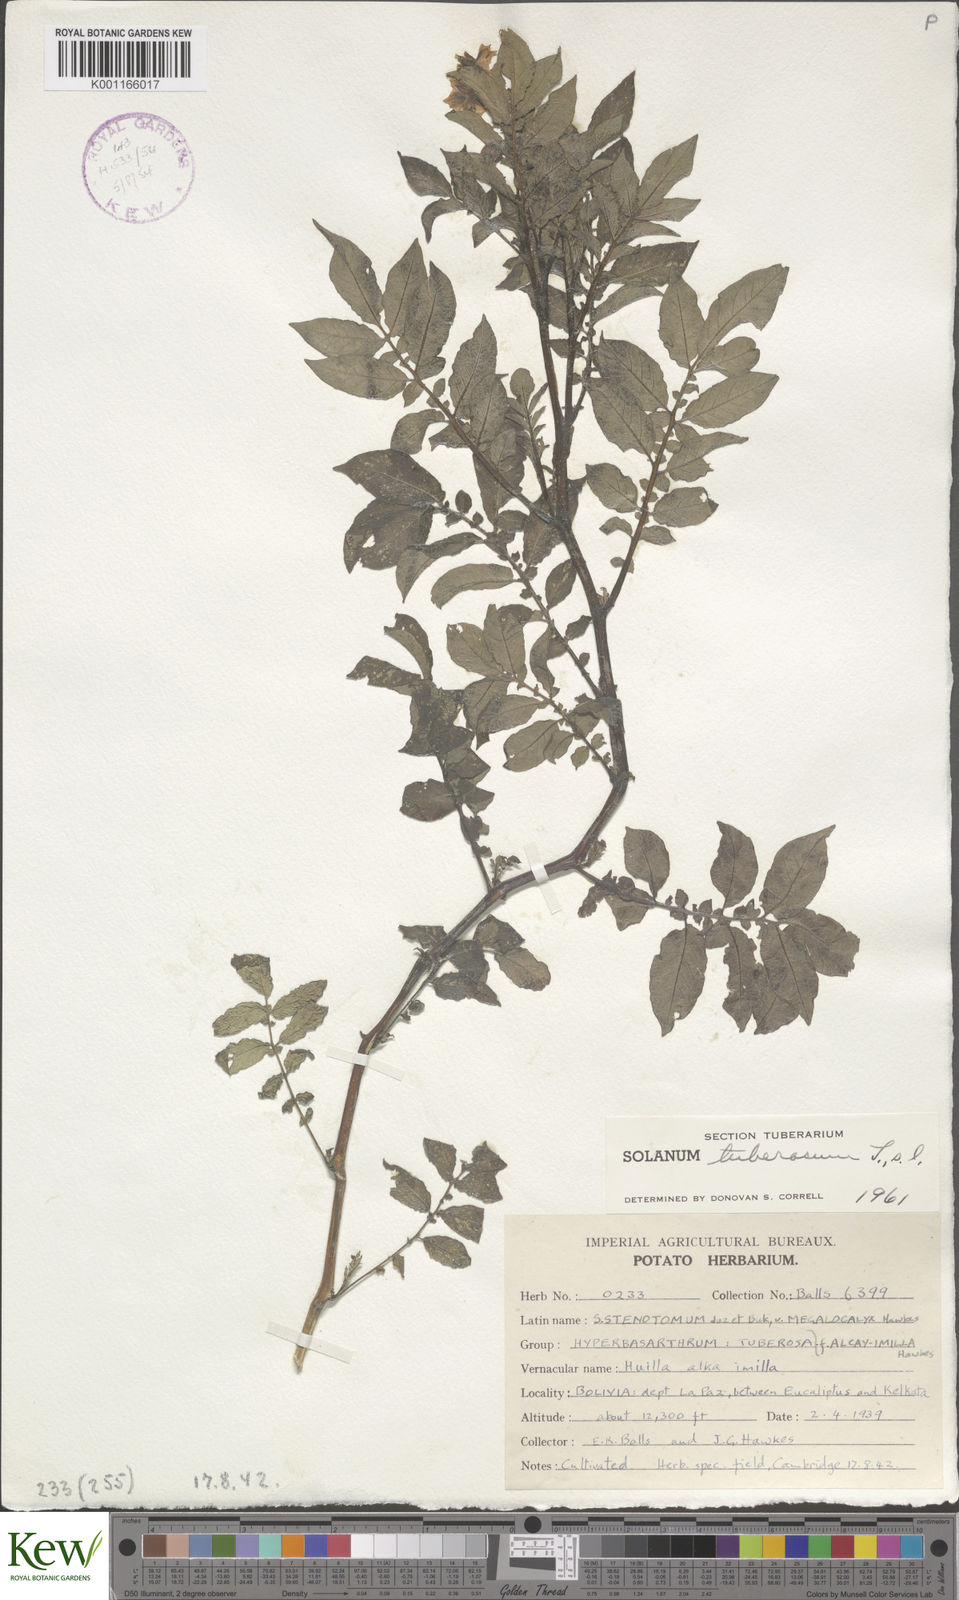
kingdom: Plantae
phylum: Tracheophyta
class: Magnoliopsida
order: Solanales
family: Solanaceae
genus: Solanum
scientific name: Solanum tuberosum
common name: Potato
